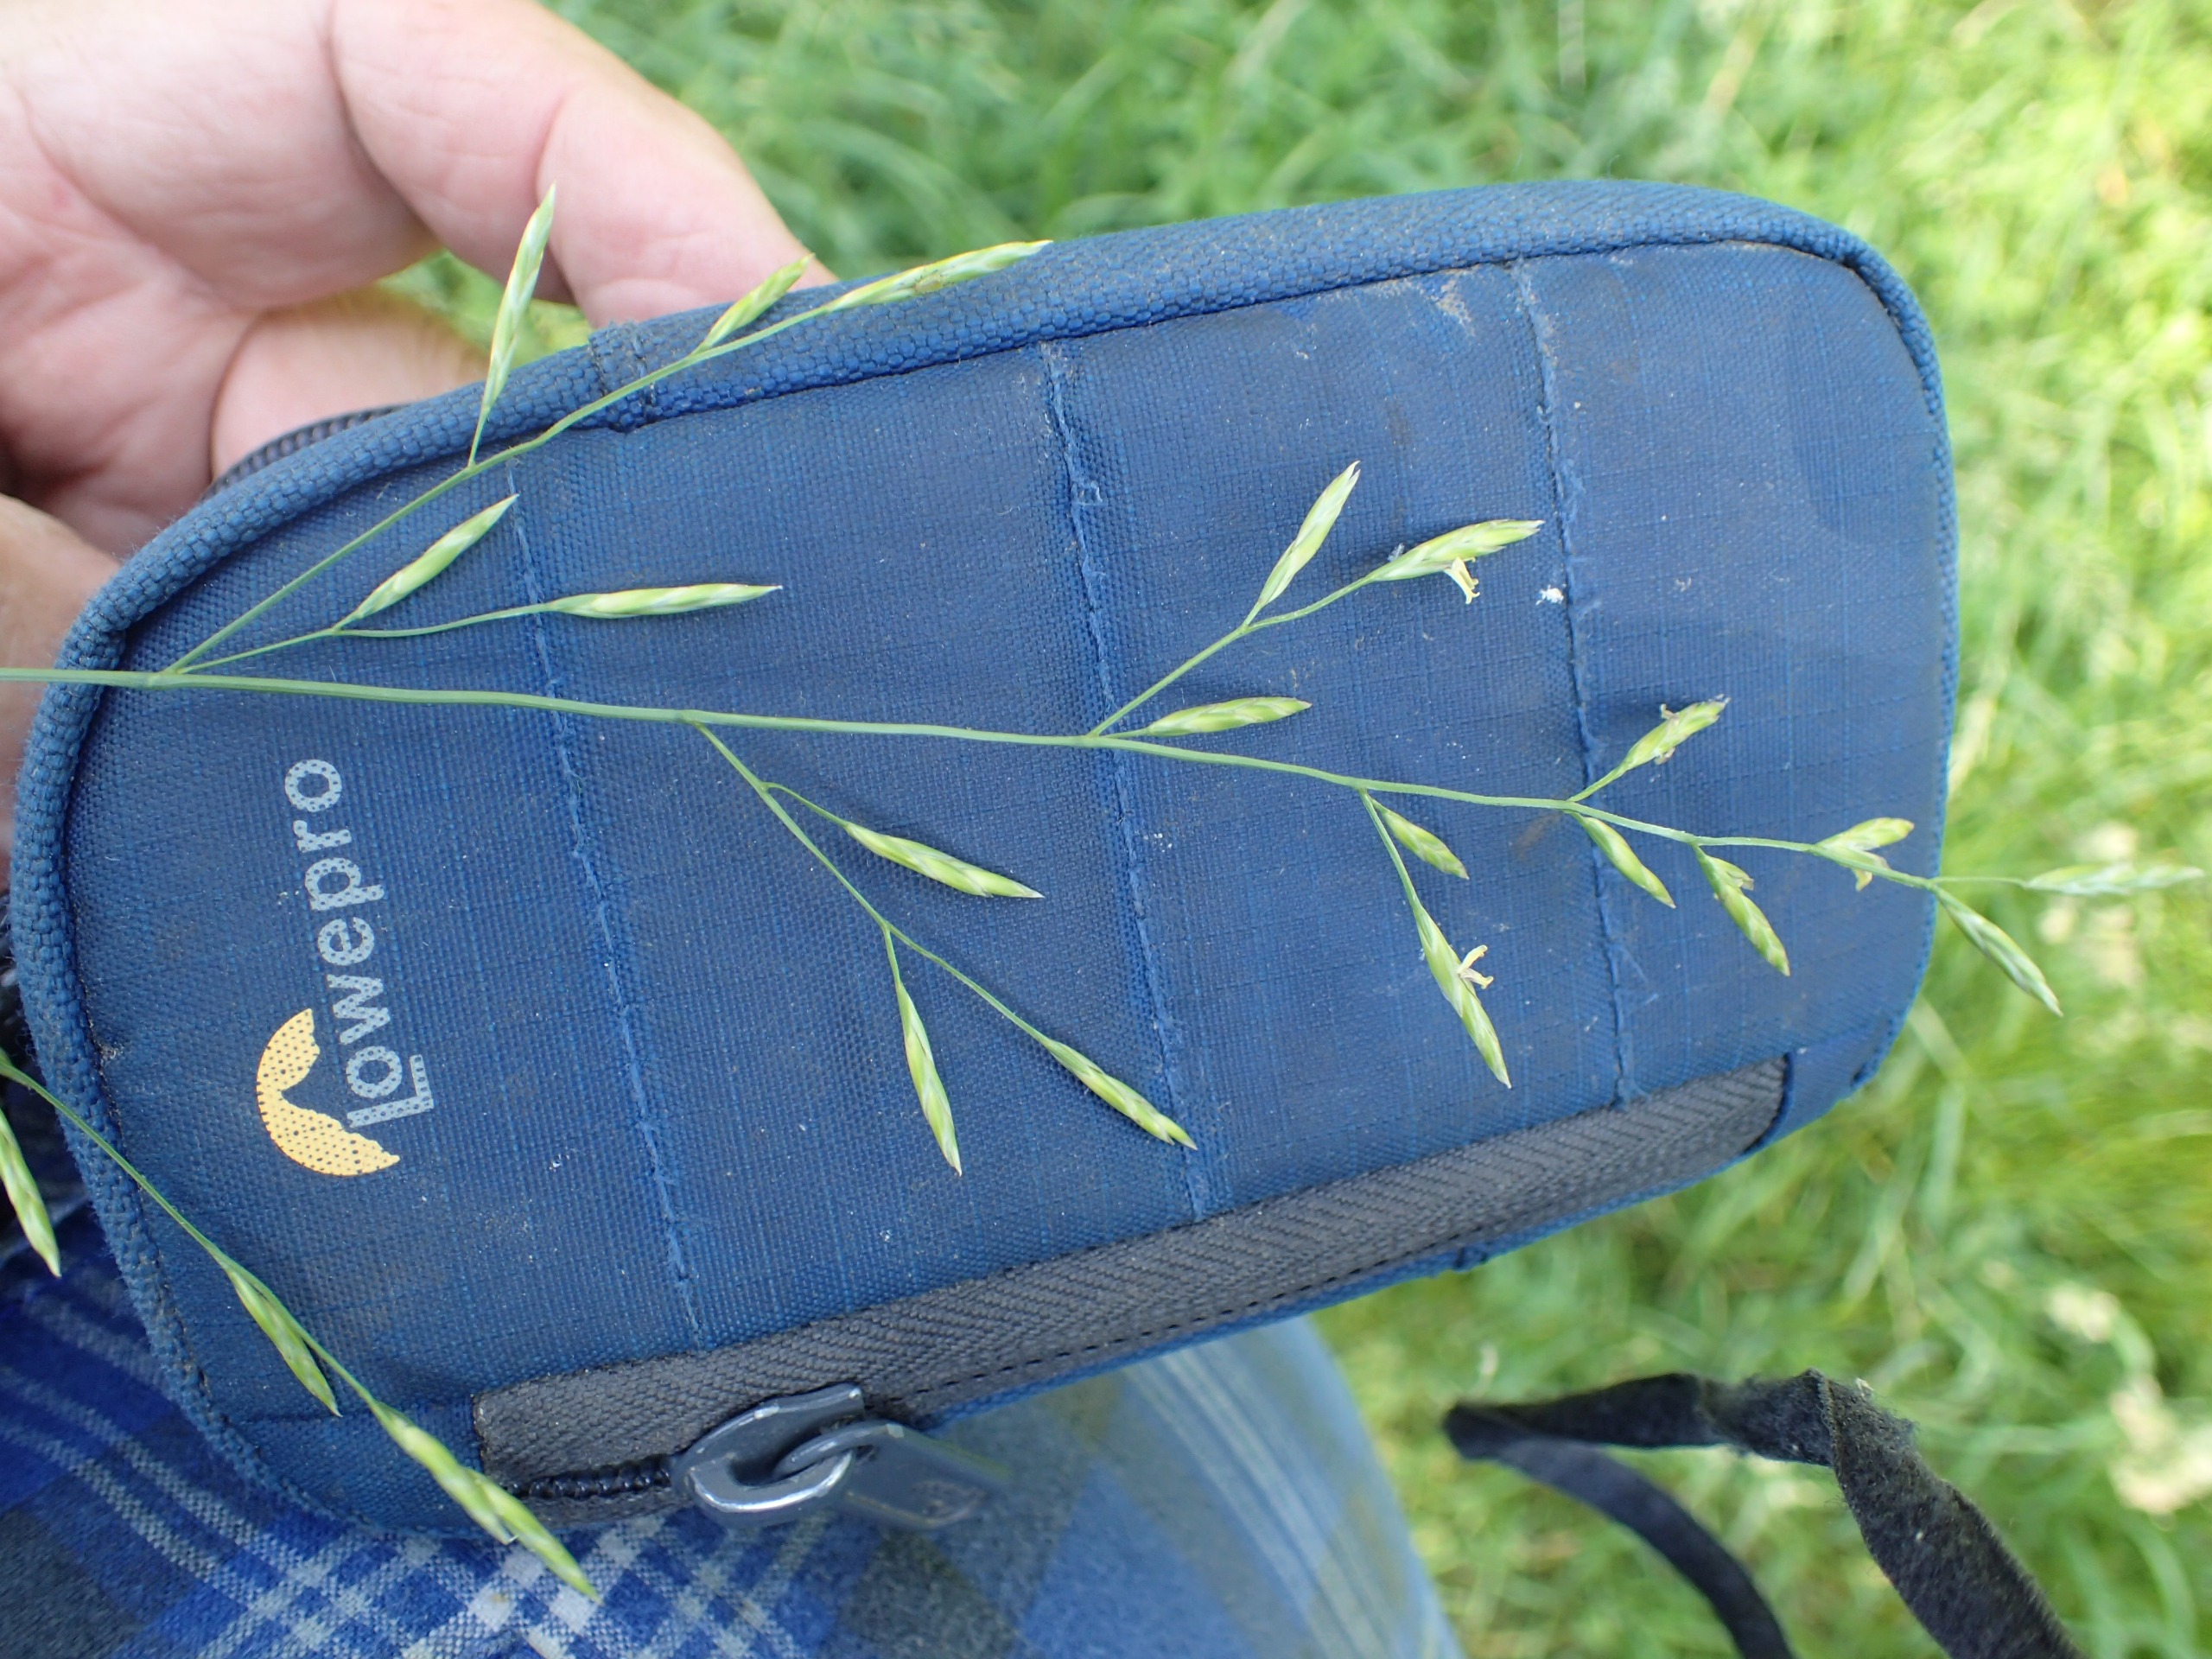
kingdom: Plantae
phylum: Tracheophyta
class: Liliopsida
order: Poales
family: Poaceae
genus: Lolium
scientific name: Lolium pratense
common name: Eng-svingel
